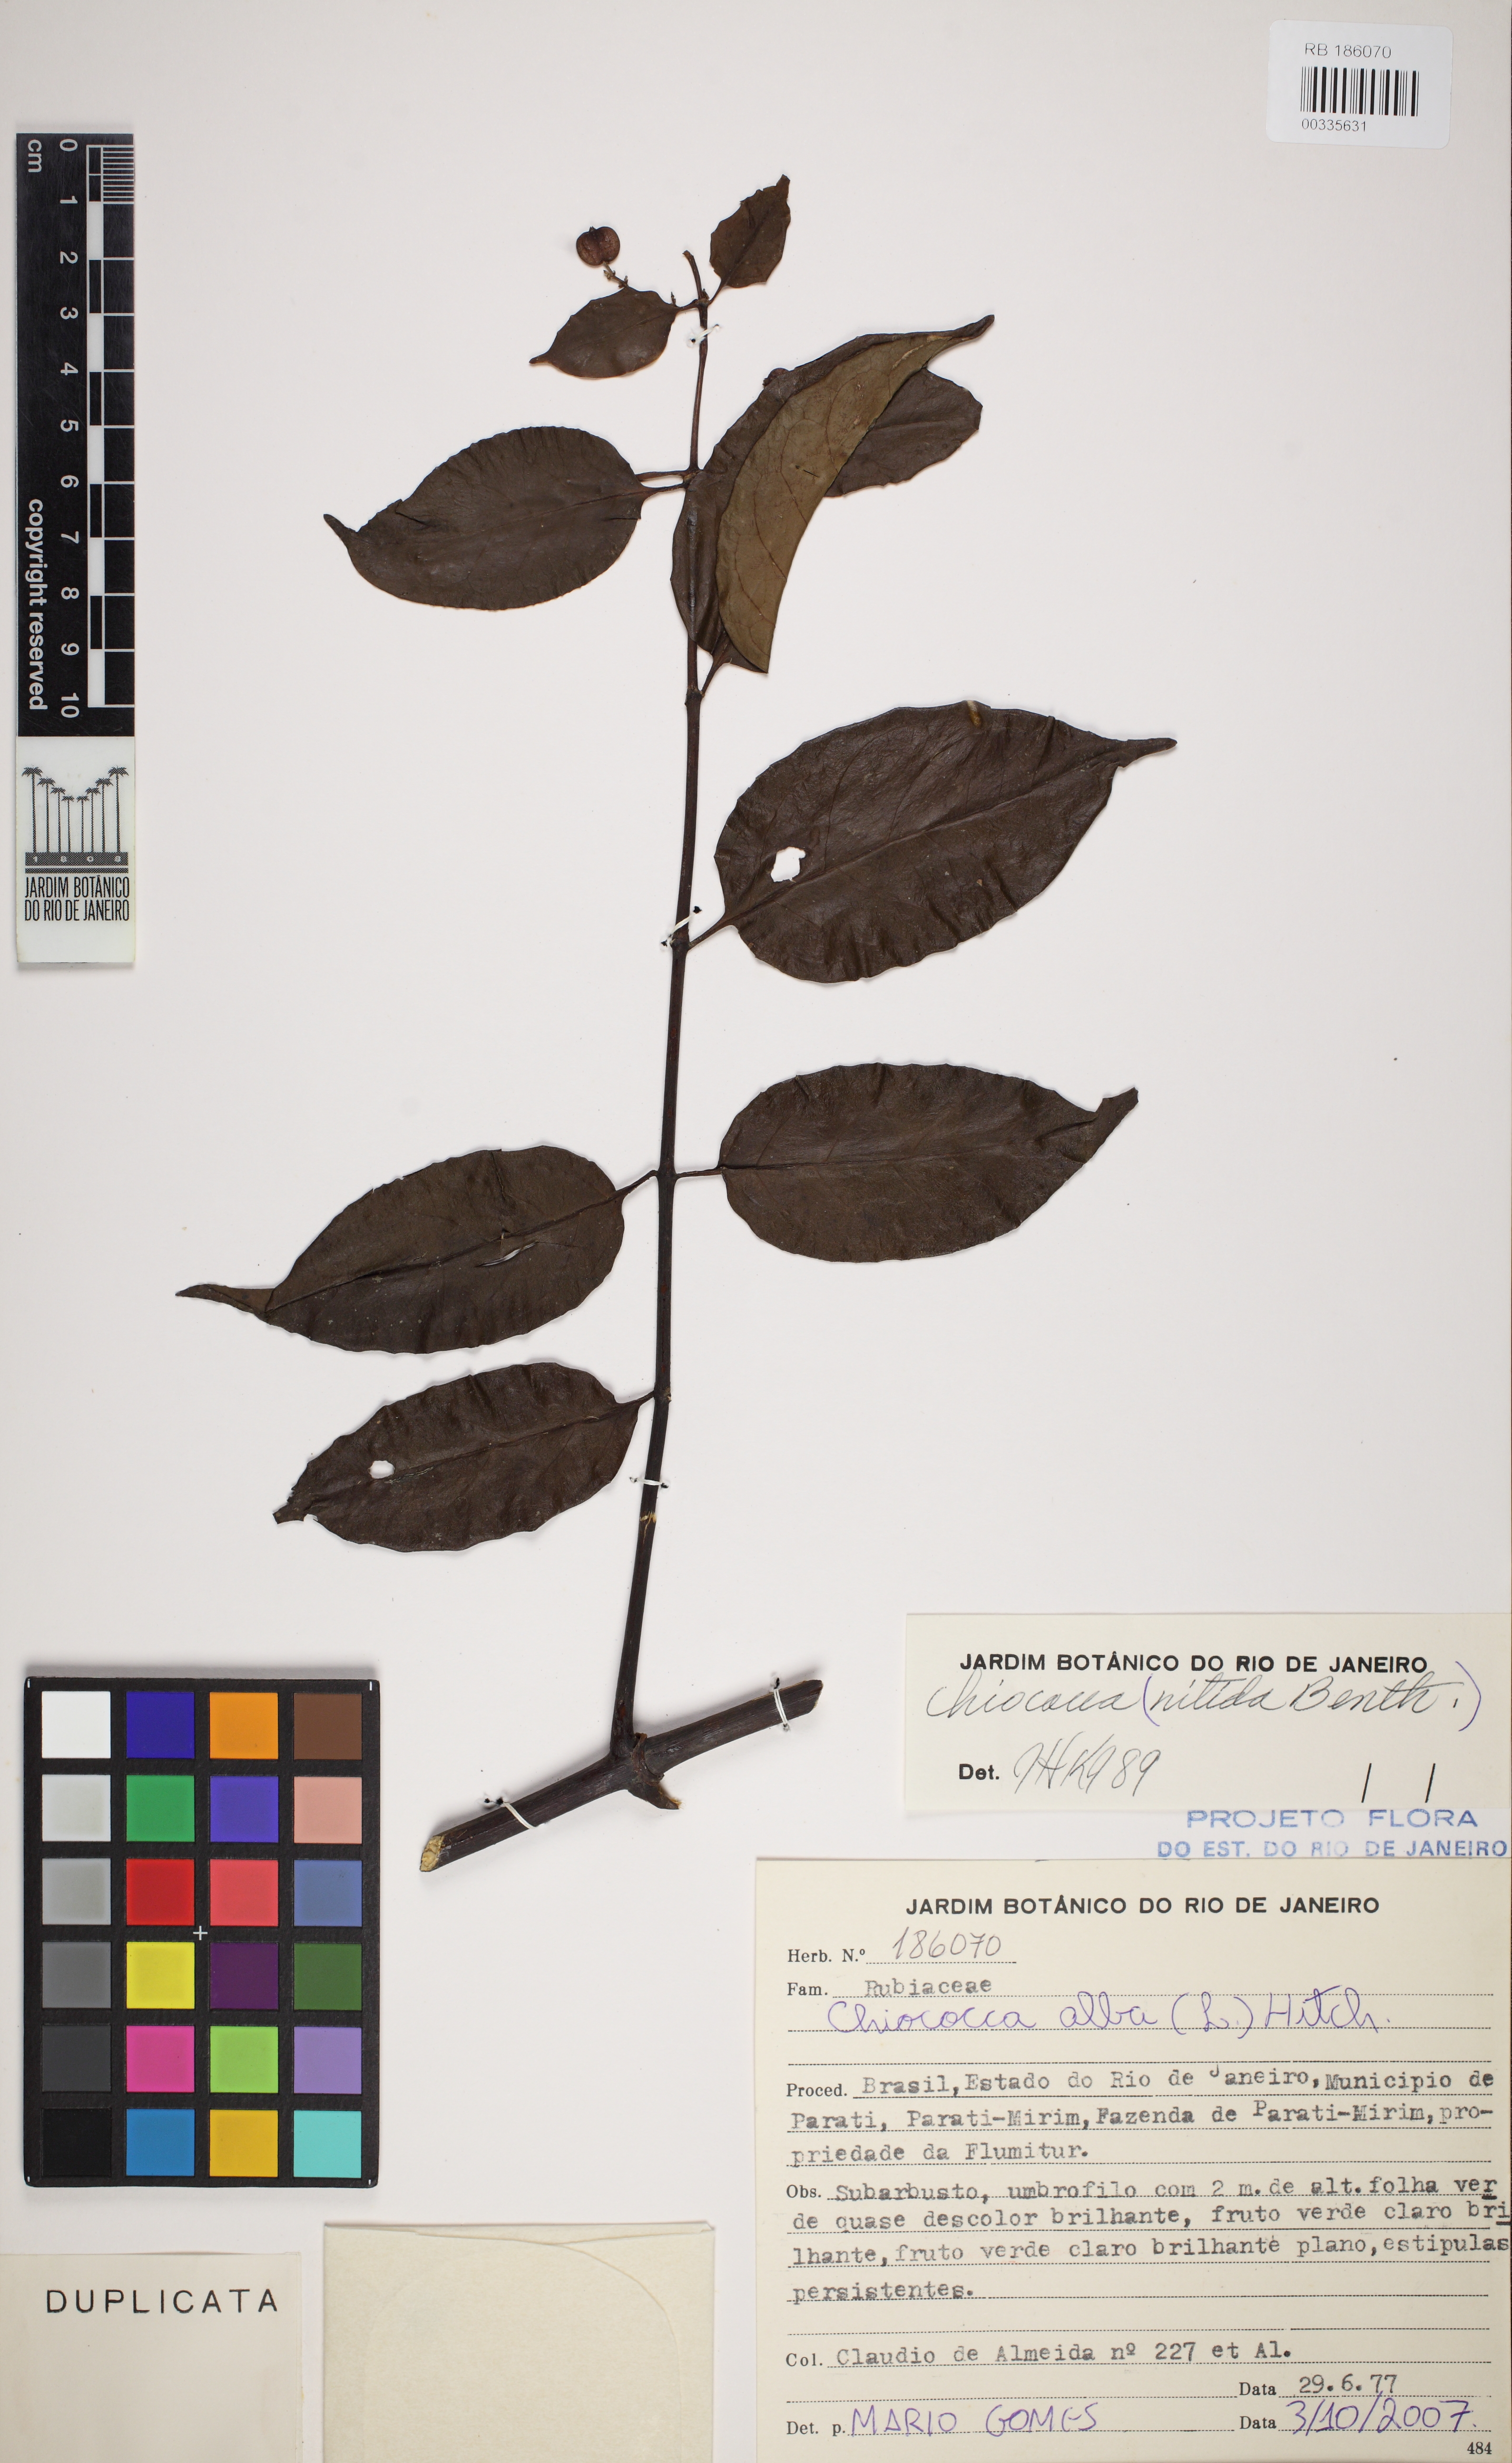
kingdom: Plantae
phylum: Tracheophyta
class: Magnoliopsida
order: Gentianales
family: Rubiaceae
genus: Chiococca
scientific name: Chiococca alba
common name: Snowberry
